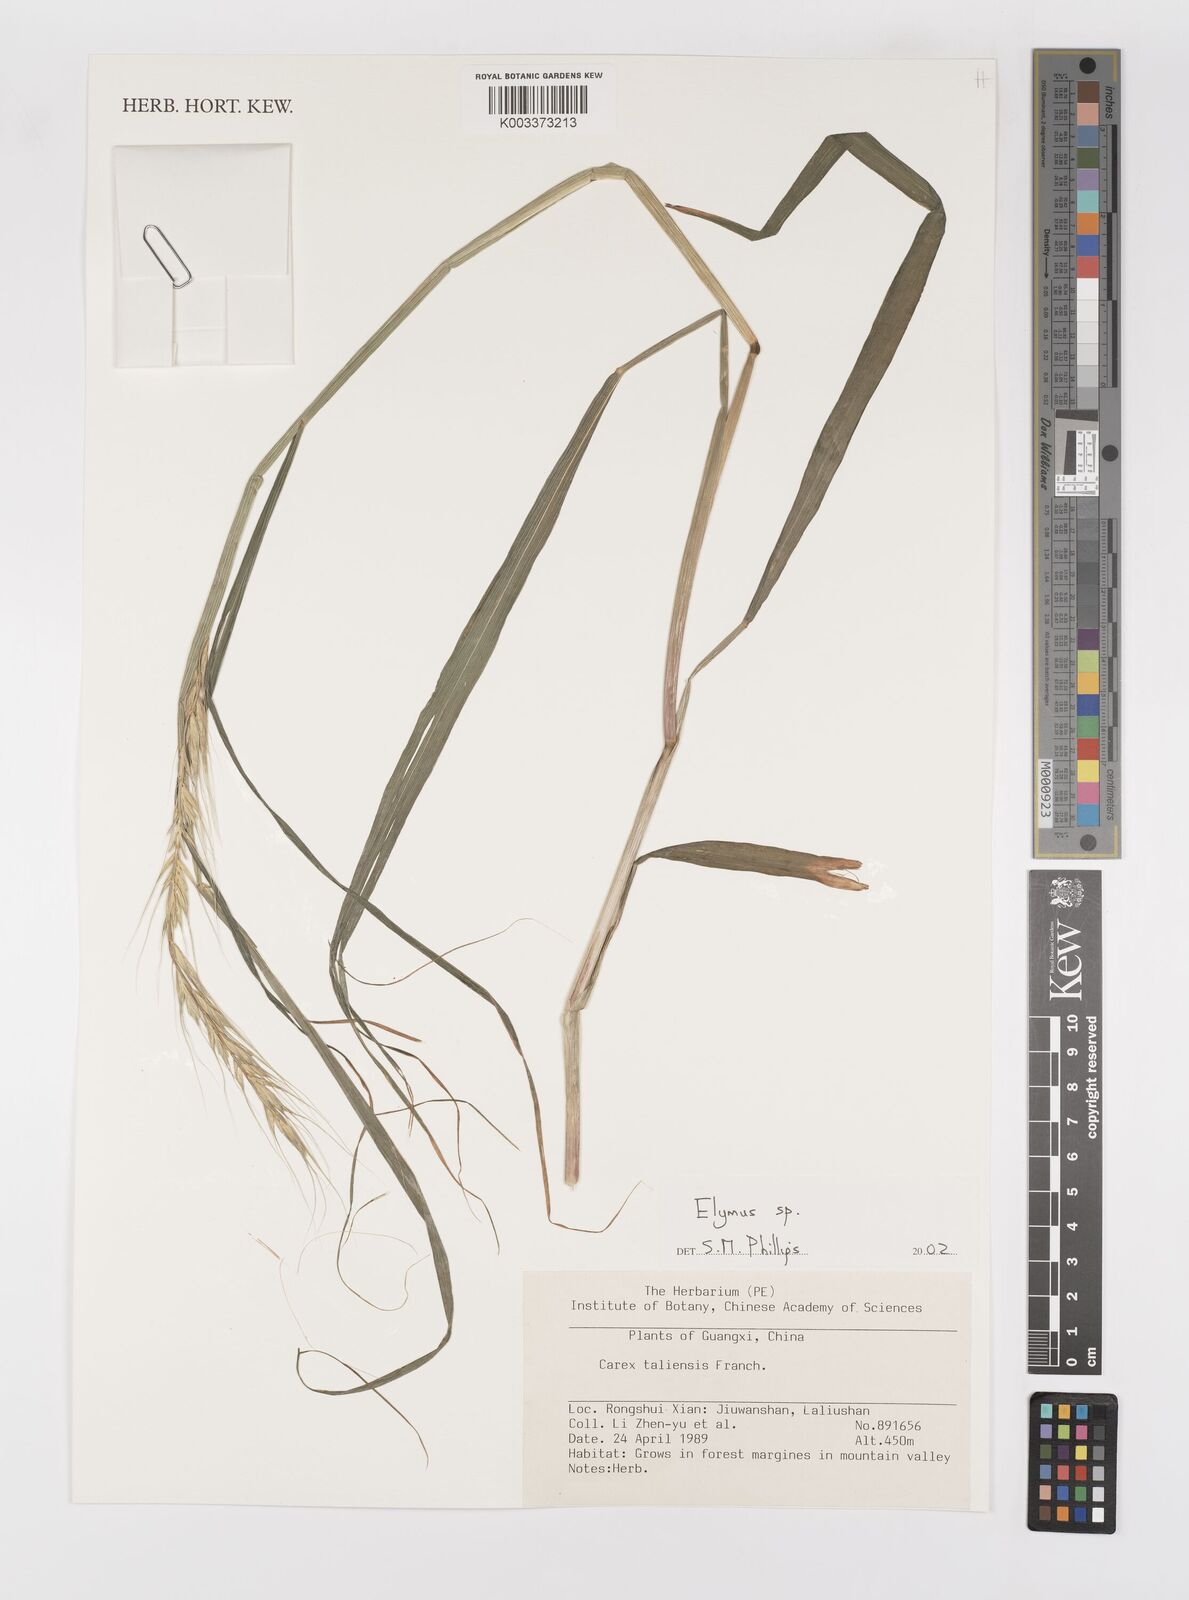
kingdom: Plantae
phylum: Tracheophyta
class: Liliopsida
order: Poales
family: Poaceae
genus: Elymus
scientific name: Elymus
